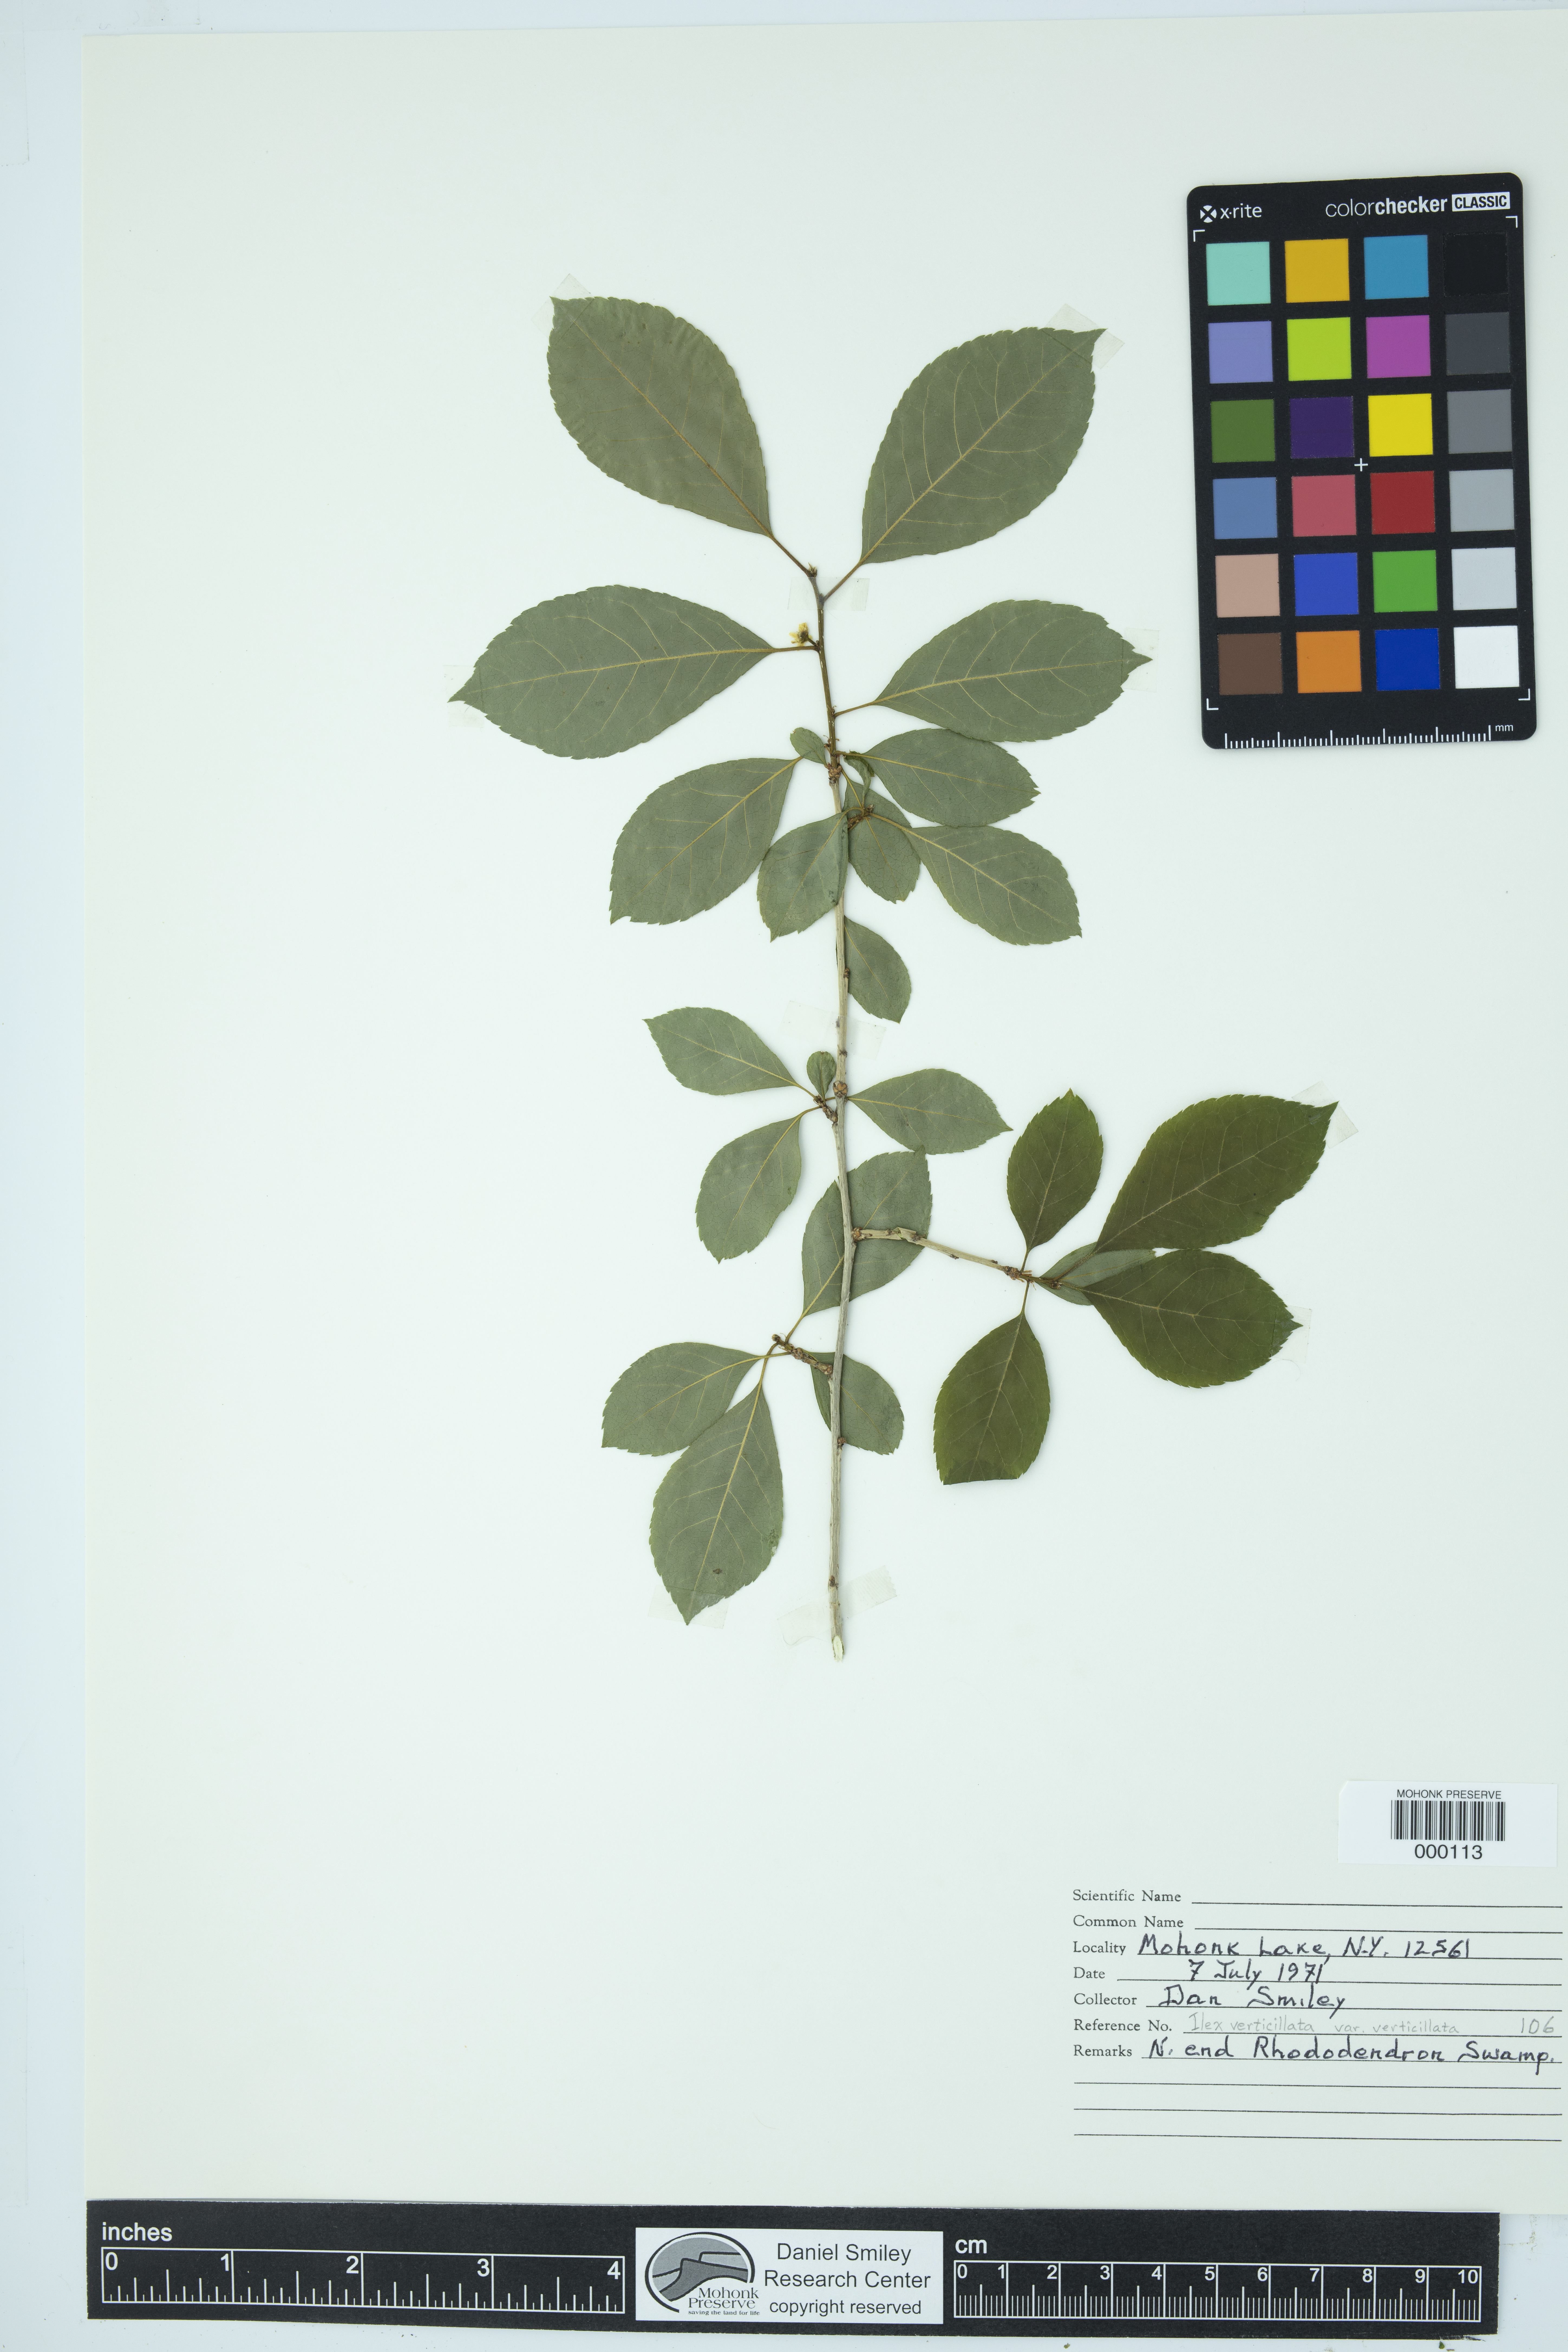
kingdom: Plantae
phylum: Tracheophyta
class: Magnoliopsida
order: Aquifoliales
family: Aquifoliaceae
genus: Ilex
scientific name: Ilex verticillata
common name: Virginia winterberry
